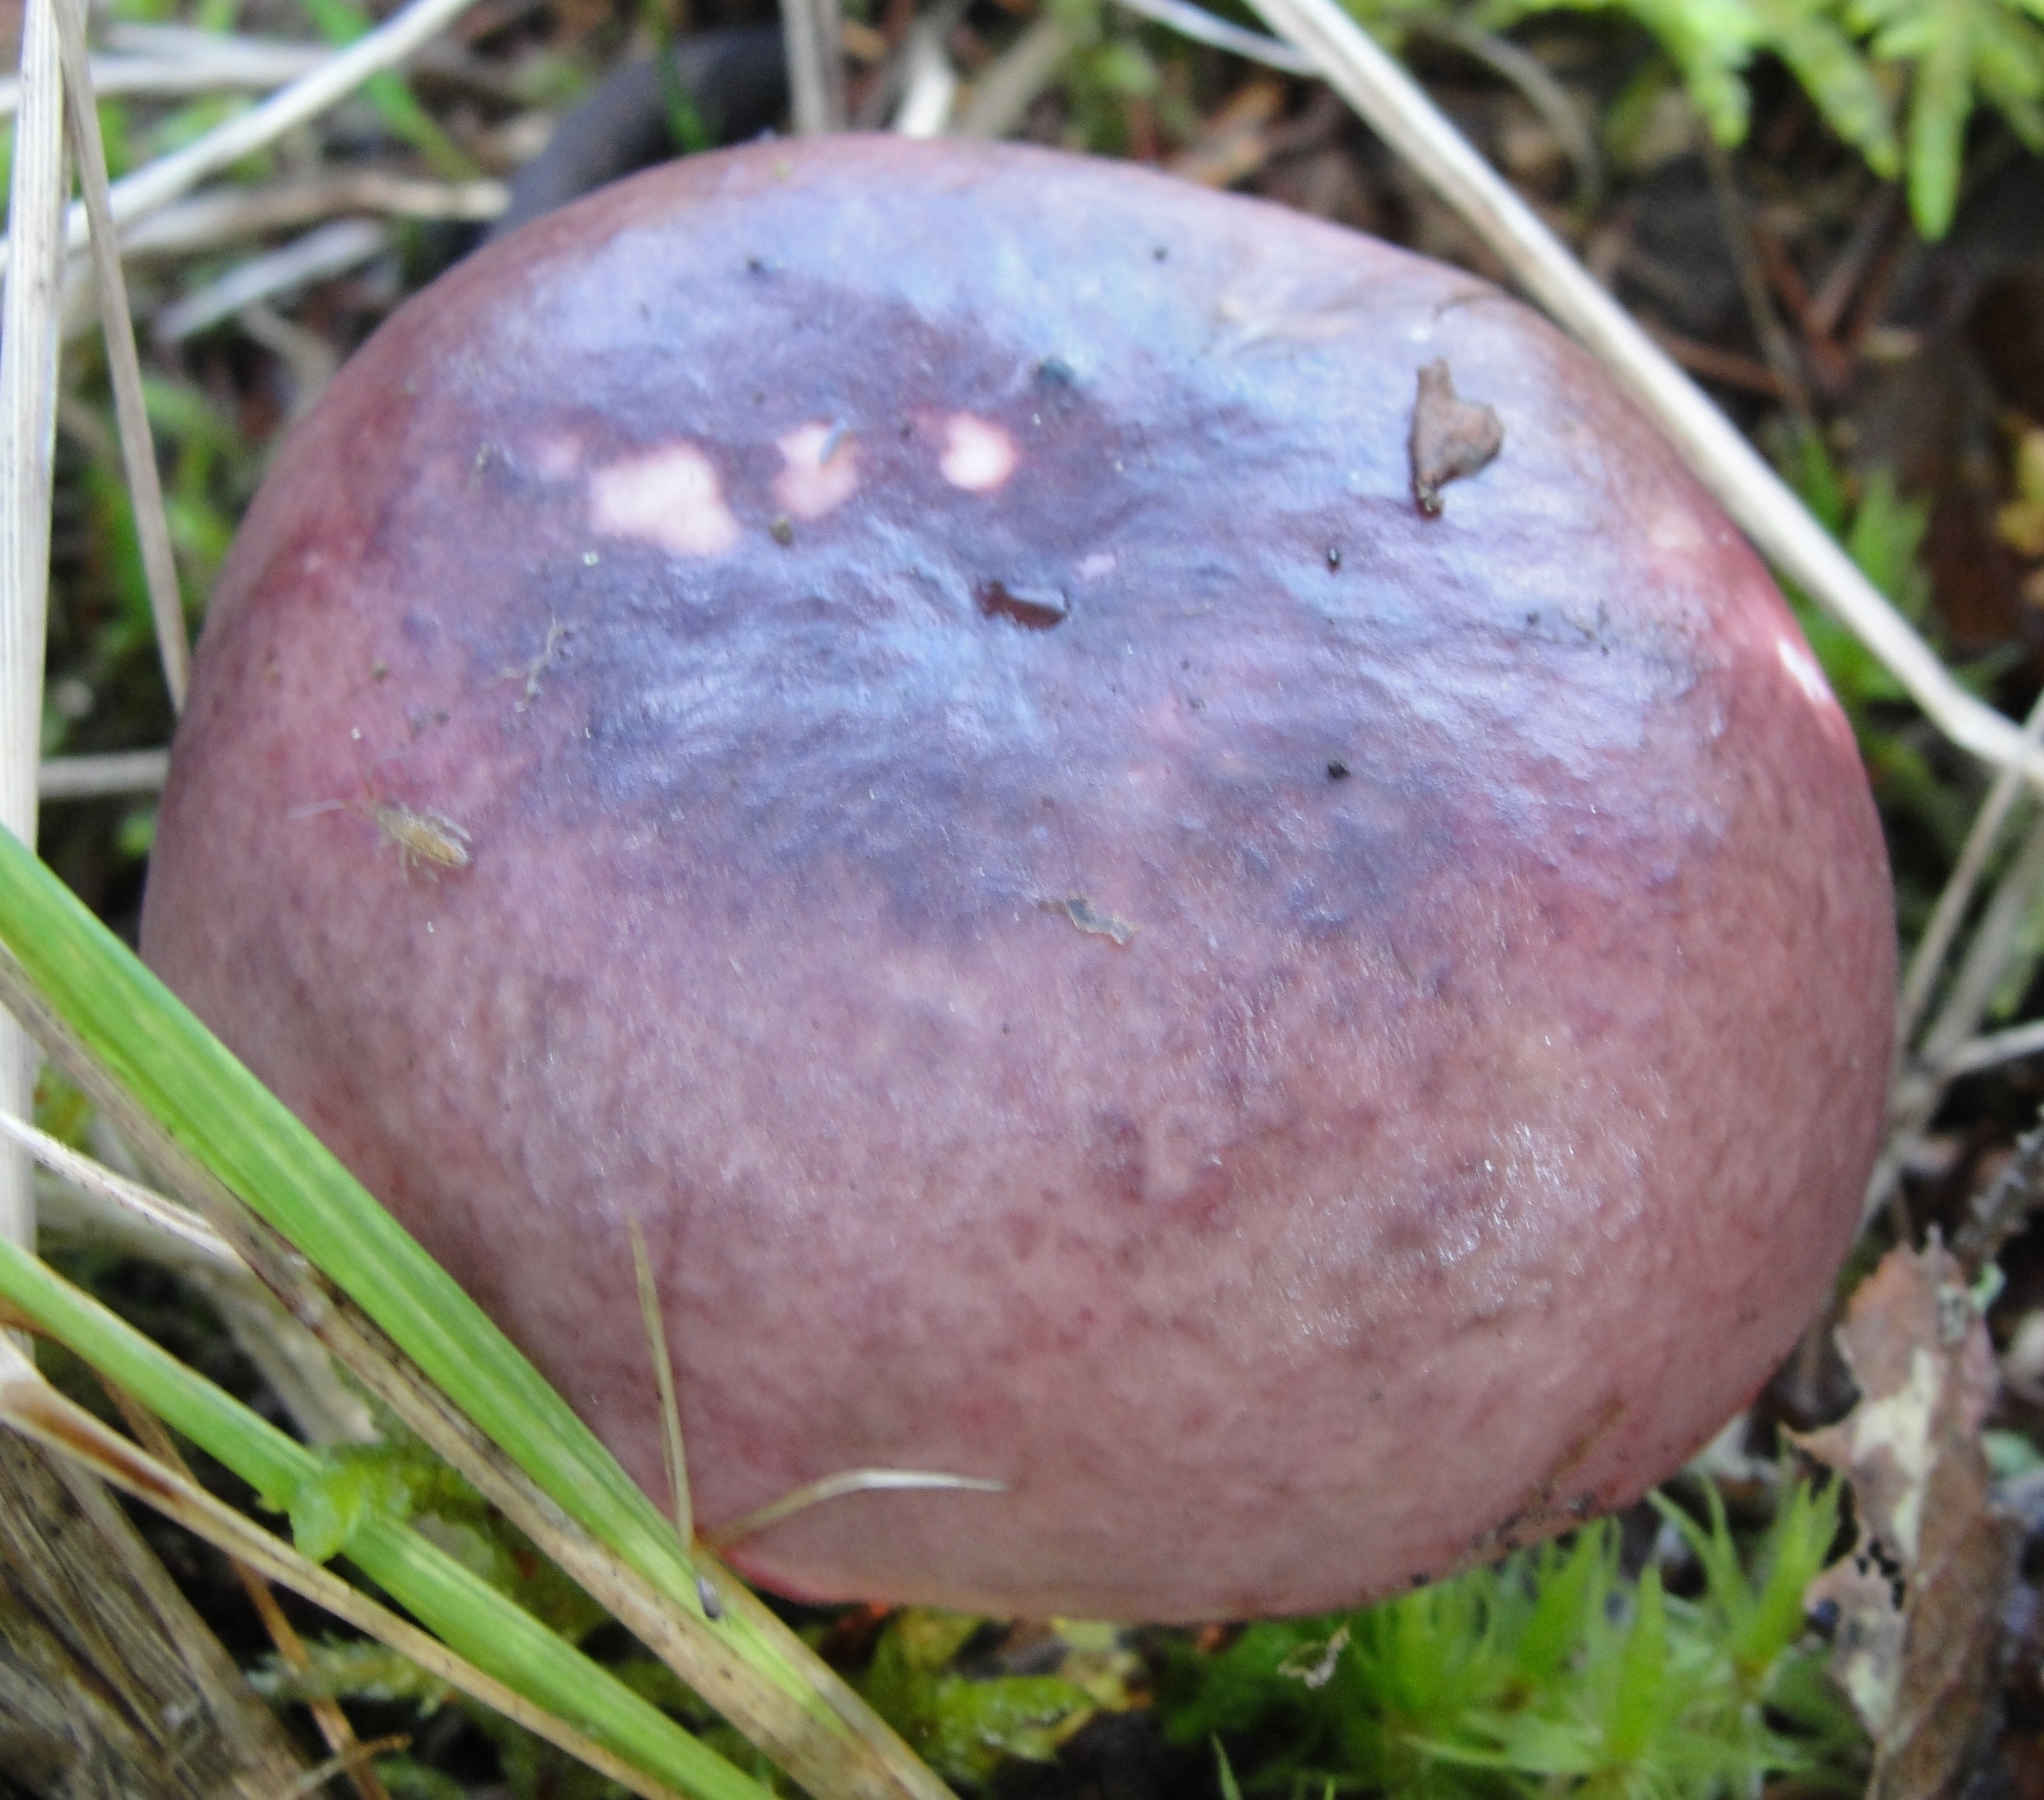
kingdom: Fungi
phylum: Basidiomycota
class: Agaricomycetes
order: Russulales
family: Russulaceae
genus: Russula
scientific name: Russula vinosa
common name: Darkening brittlegill
